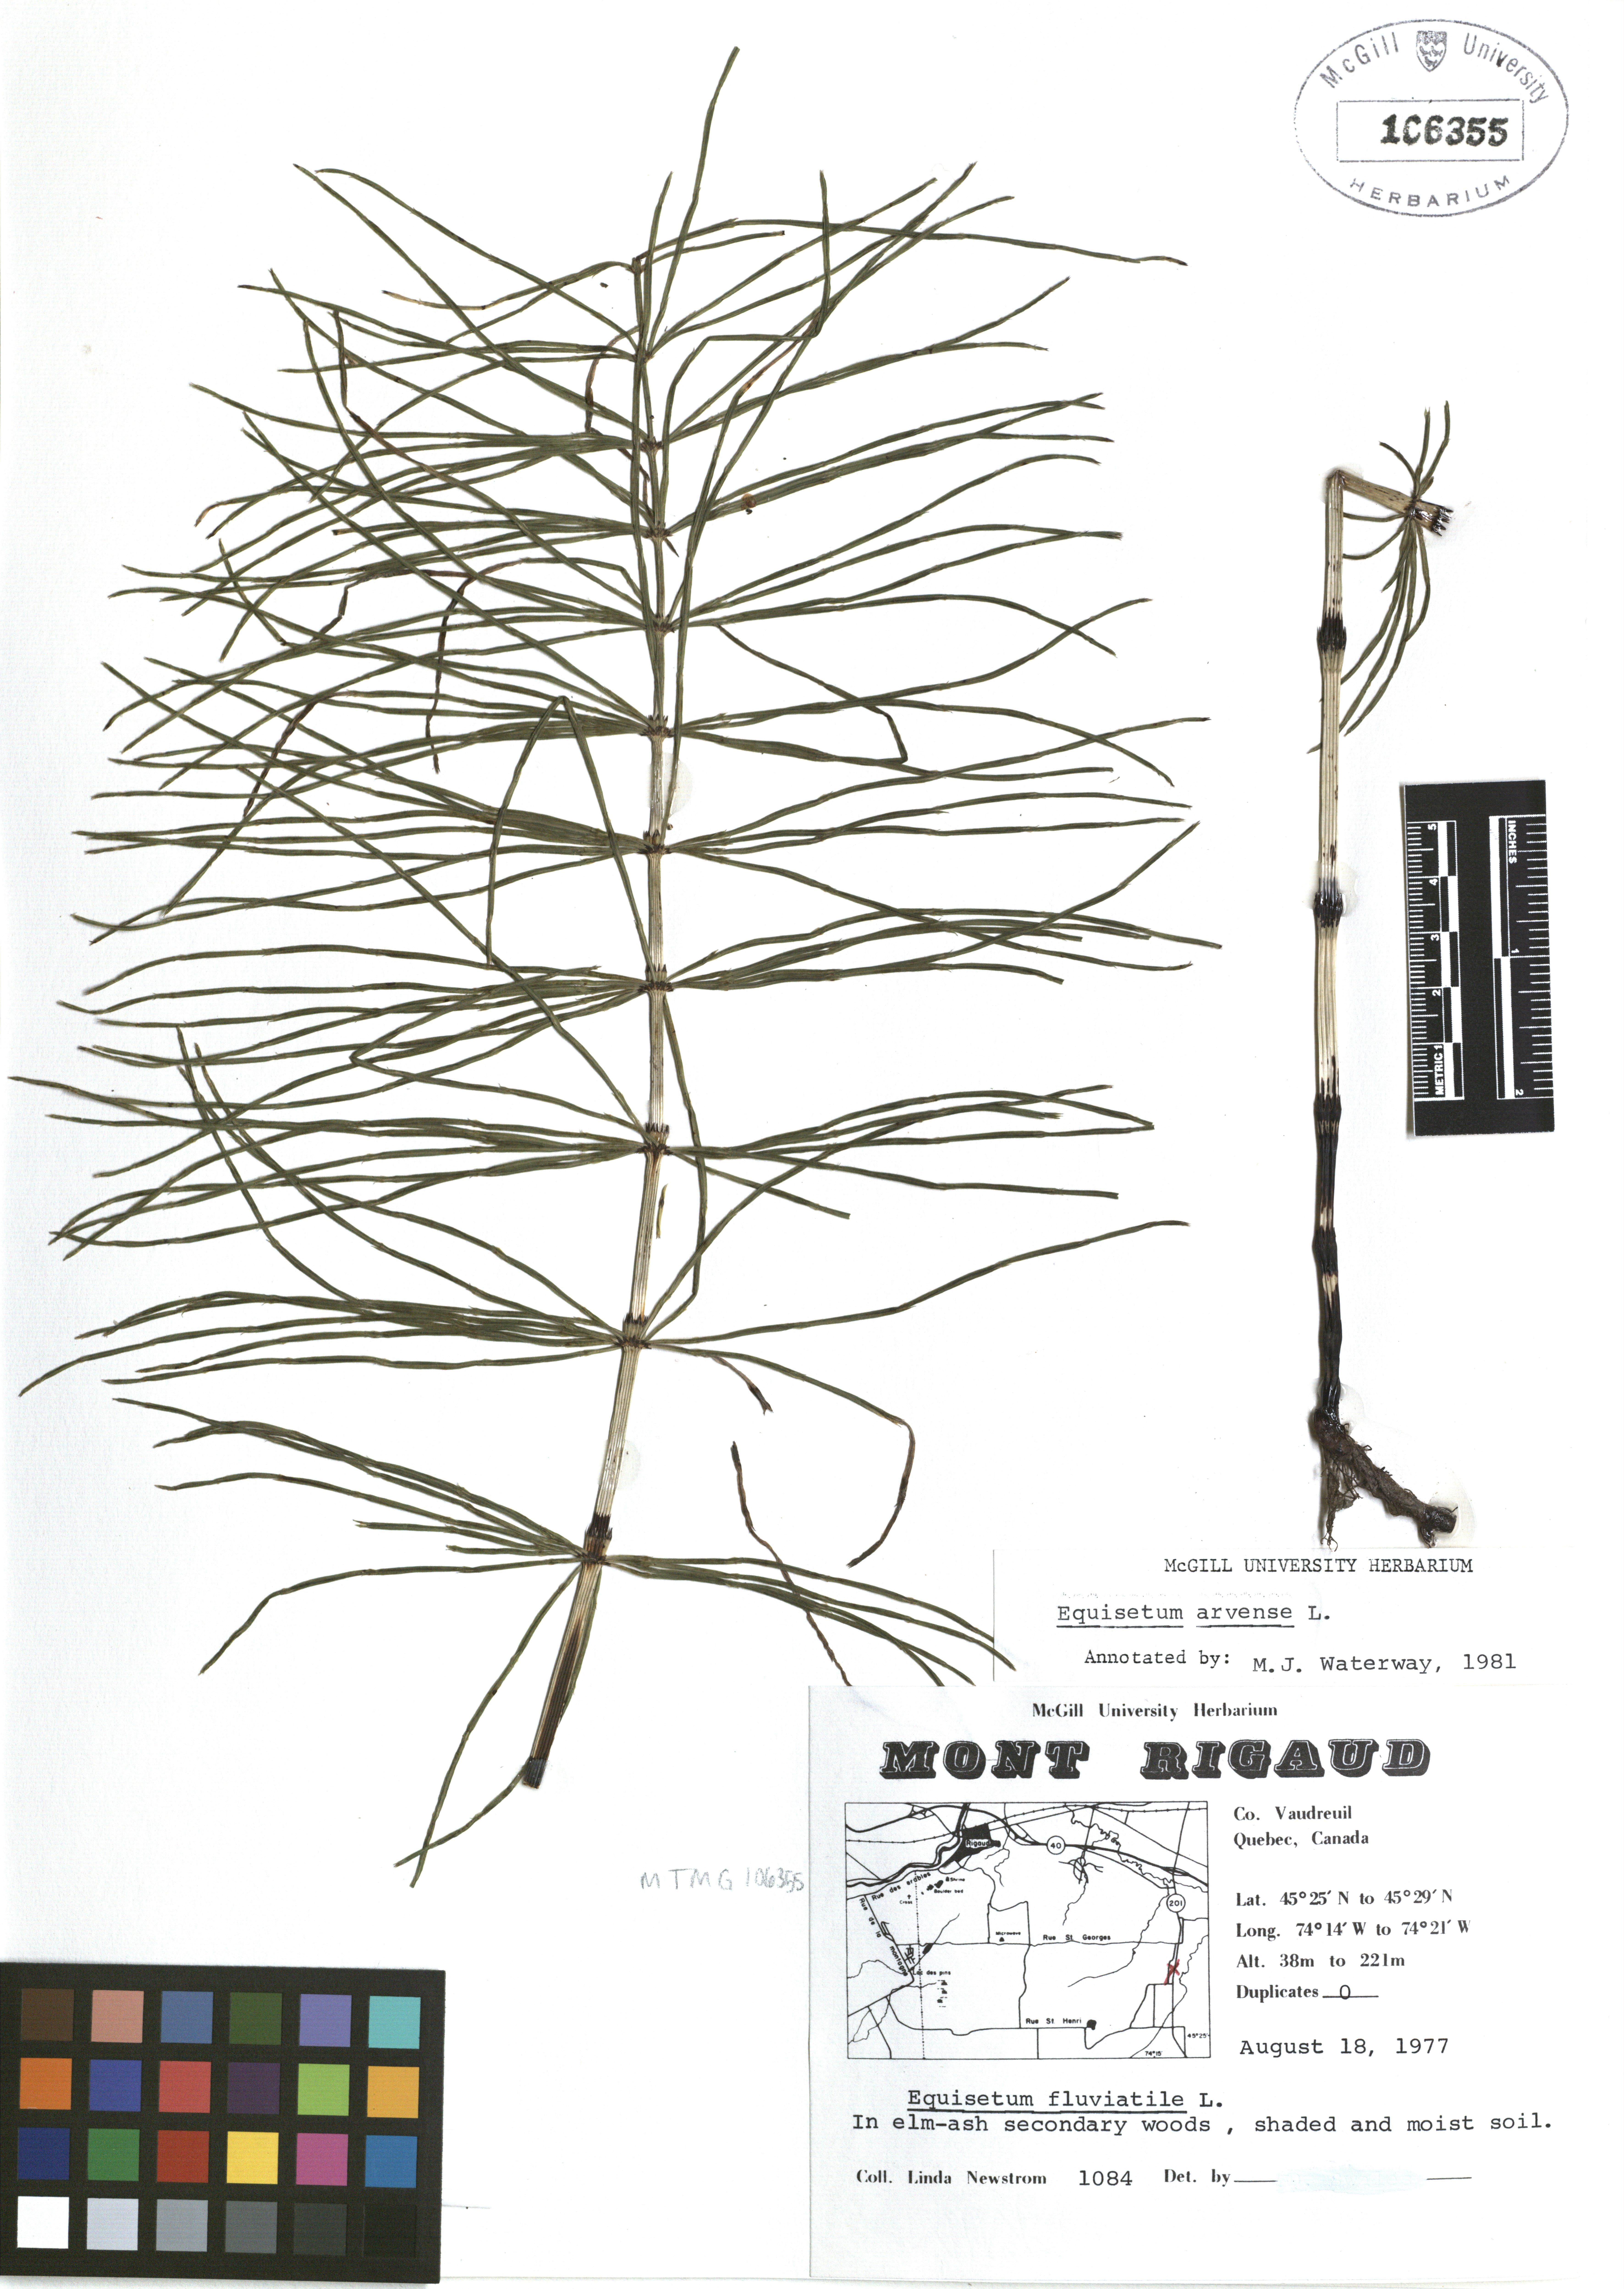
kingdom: Plantae
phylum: Tracheophyta
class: Polypodiopsida
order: Equisetales
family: Equisetaceae
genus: Equisetum
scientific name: Equisetum arvense
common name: Field horsetail
